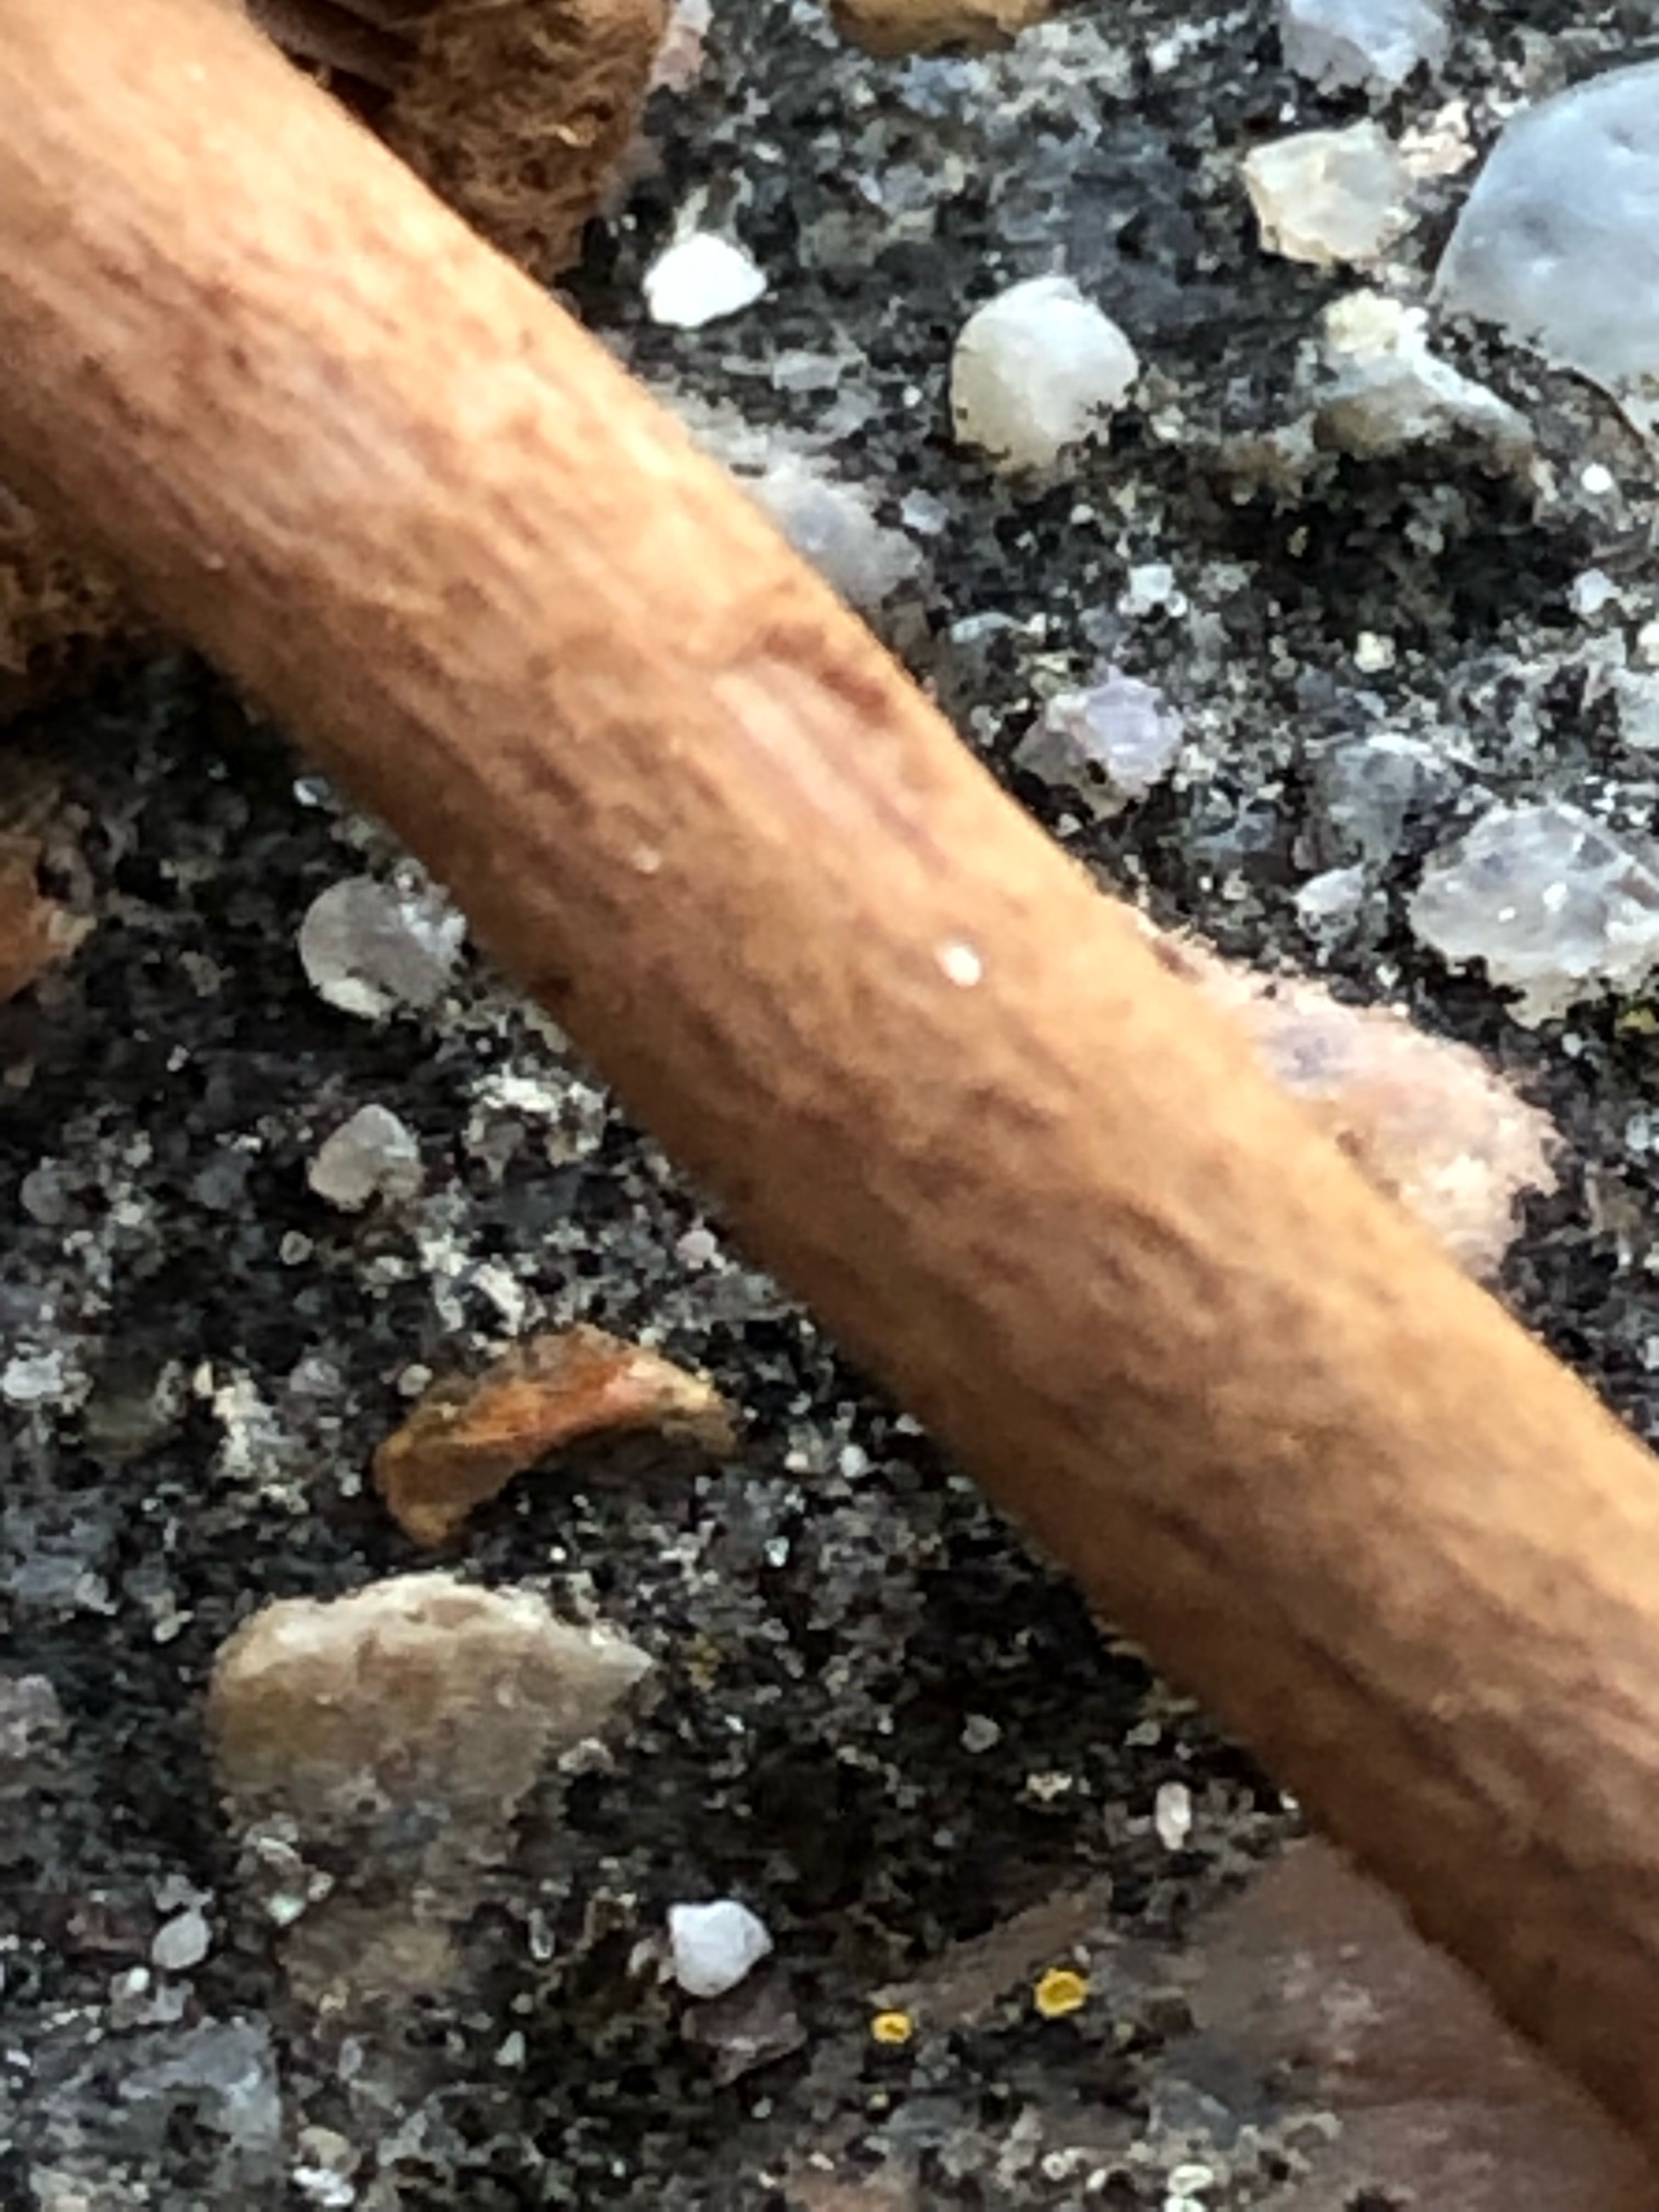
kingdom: Fungi
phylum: Basidiomycota
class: Agaricomycetes
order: Agaricales
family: Inocybaceae
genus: Inocybe
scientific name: Inocybe
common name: trævlhat
